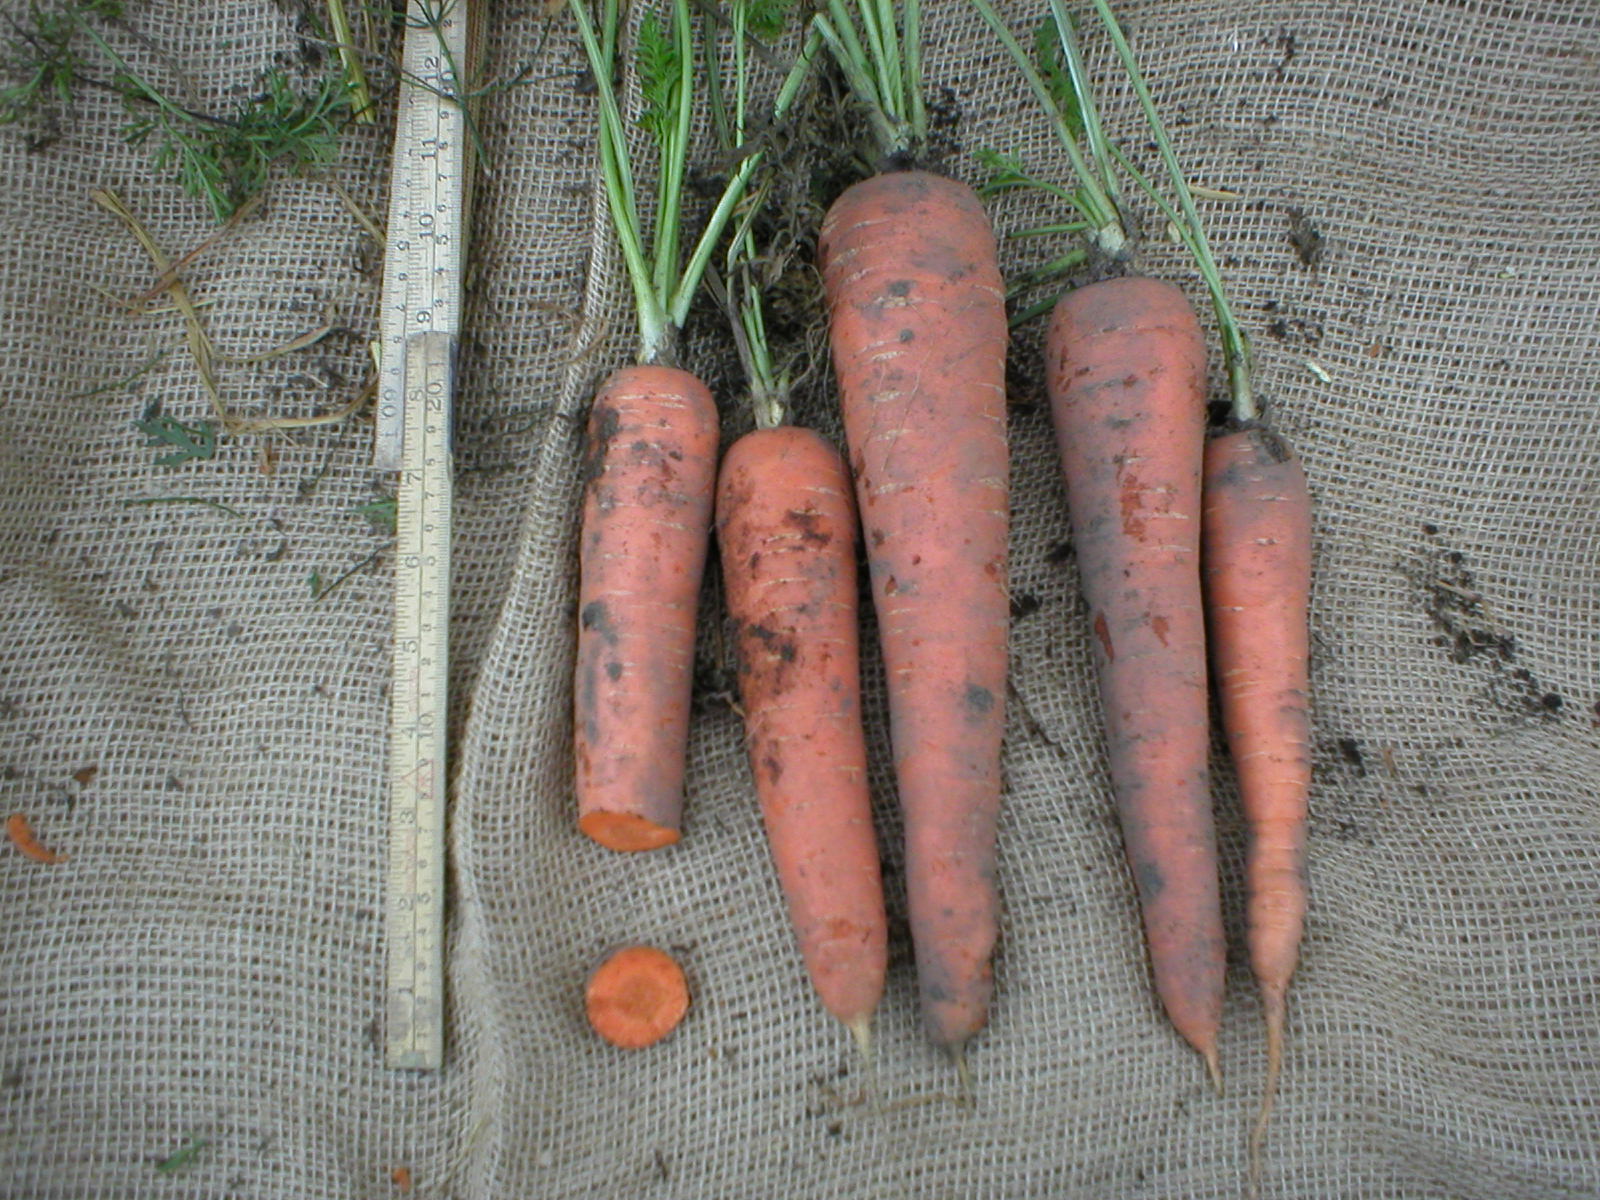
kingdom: Plantae
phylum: Tracheophyta
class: Magnoliopsida
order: Apiales
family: Apiaceae
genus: Daucus
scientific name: Daucus carota
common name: Wild carrot
